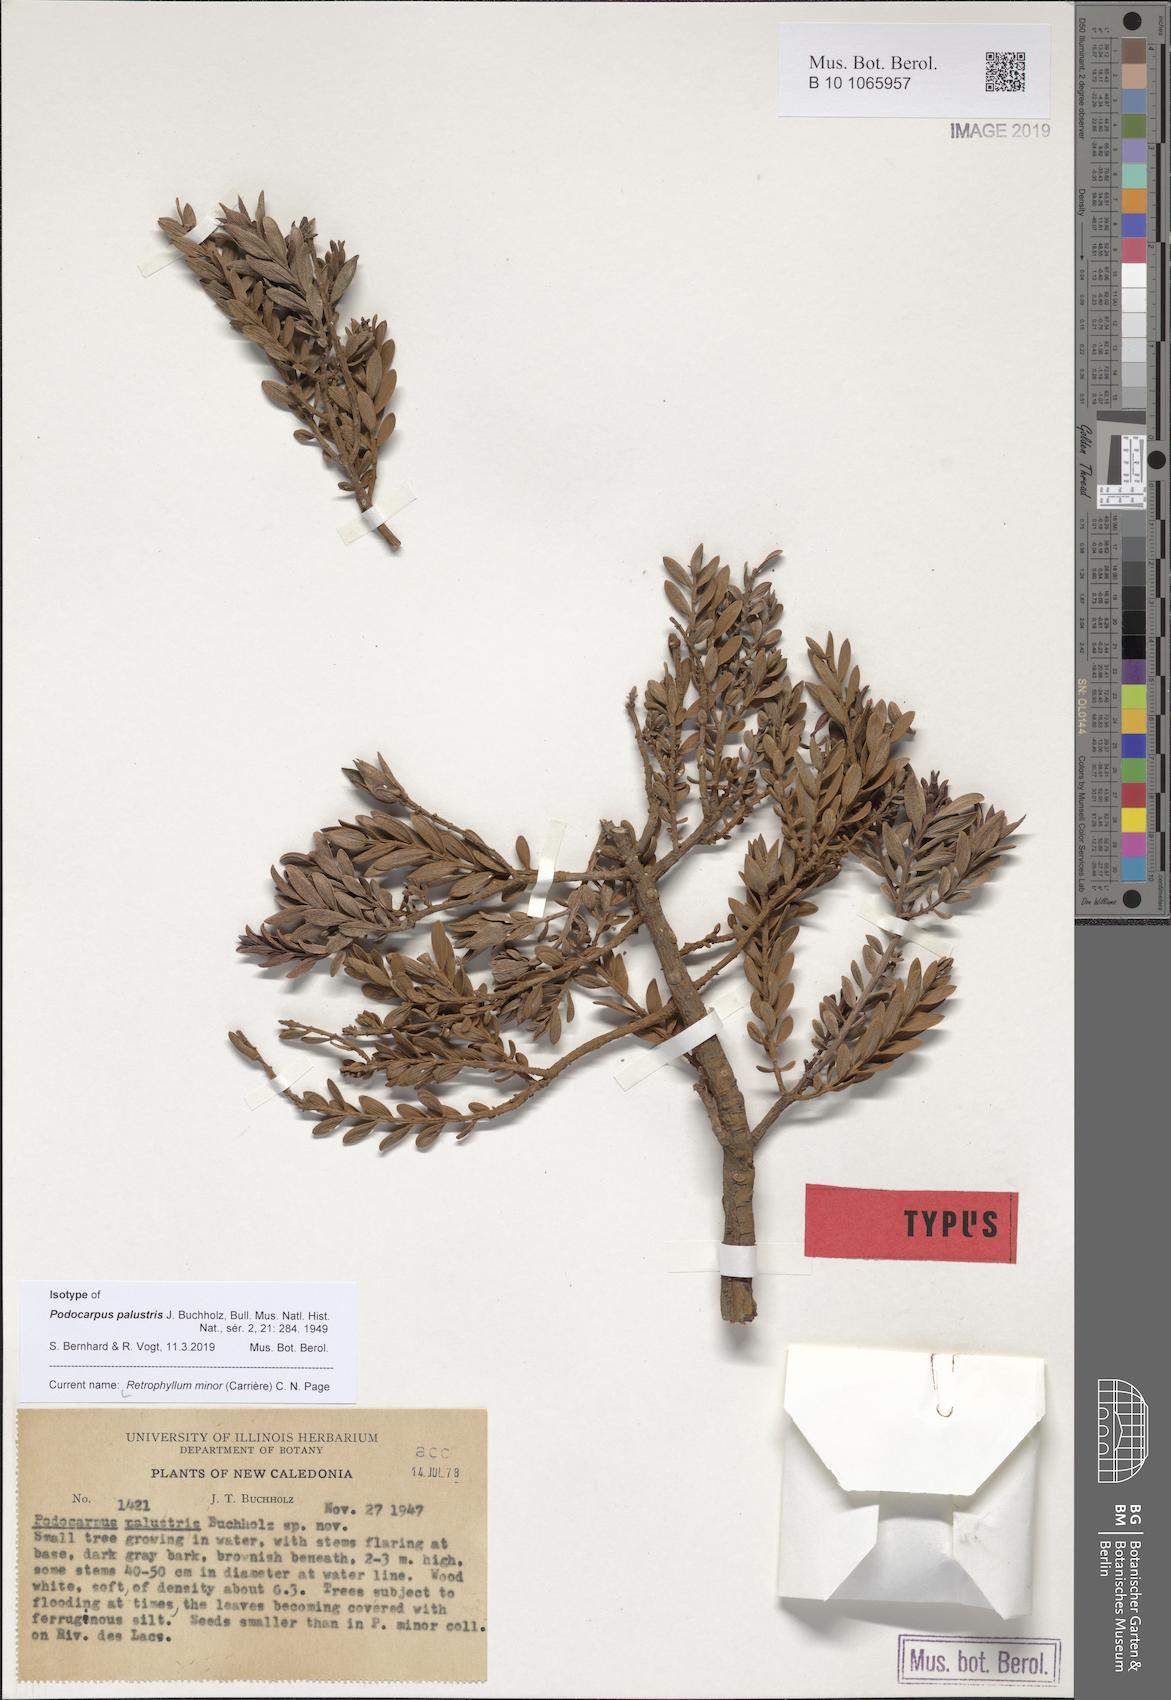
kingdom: Plantae
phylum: Tracheophyta
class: Pinopsida
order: Pinales
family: Podocarpaceae
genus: Retrophyllum
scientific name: Retrophyllum minus
